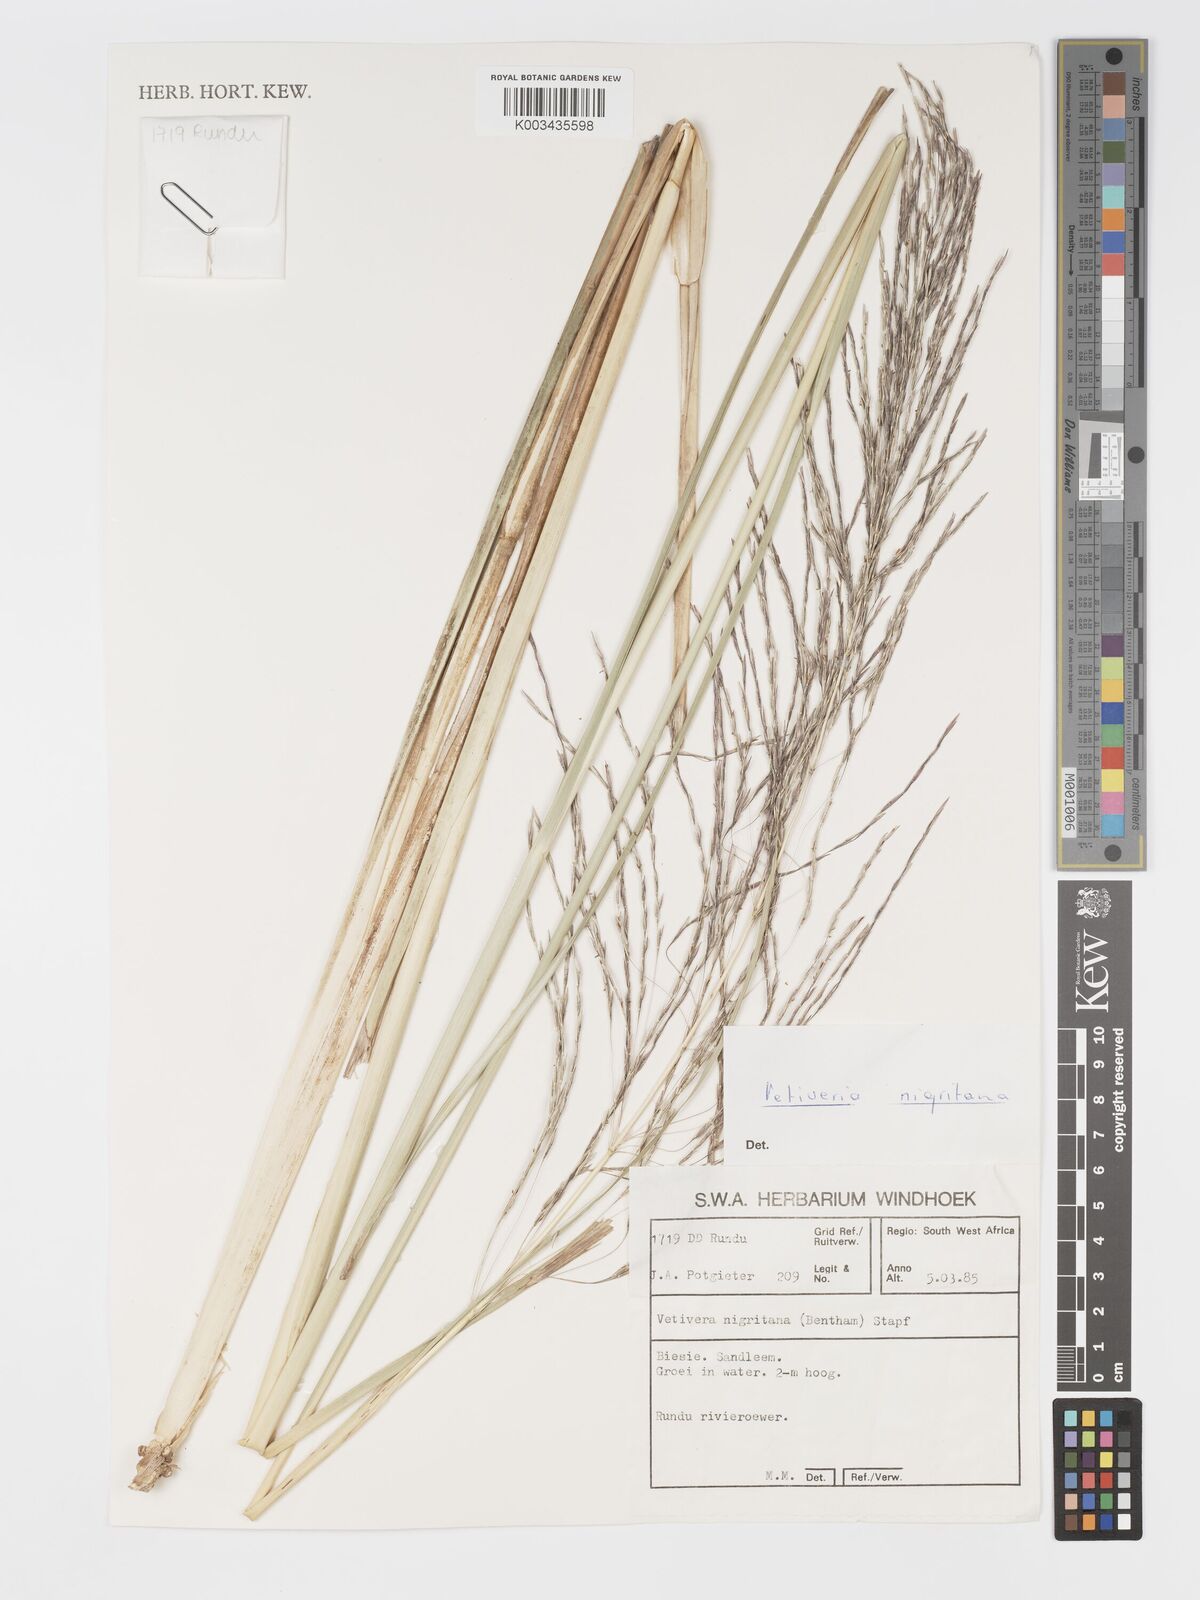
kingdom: Plantae
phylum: Tracheophyta
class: Liliopsida
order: Poales
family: Poaceae
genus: Chrysopogon
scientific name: Chrysopogon nigritanus
